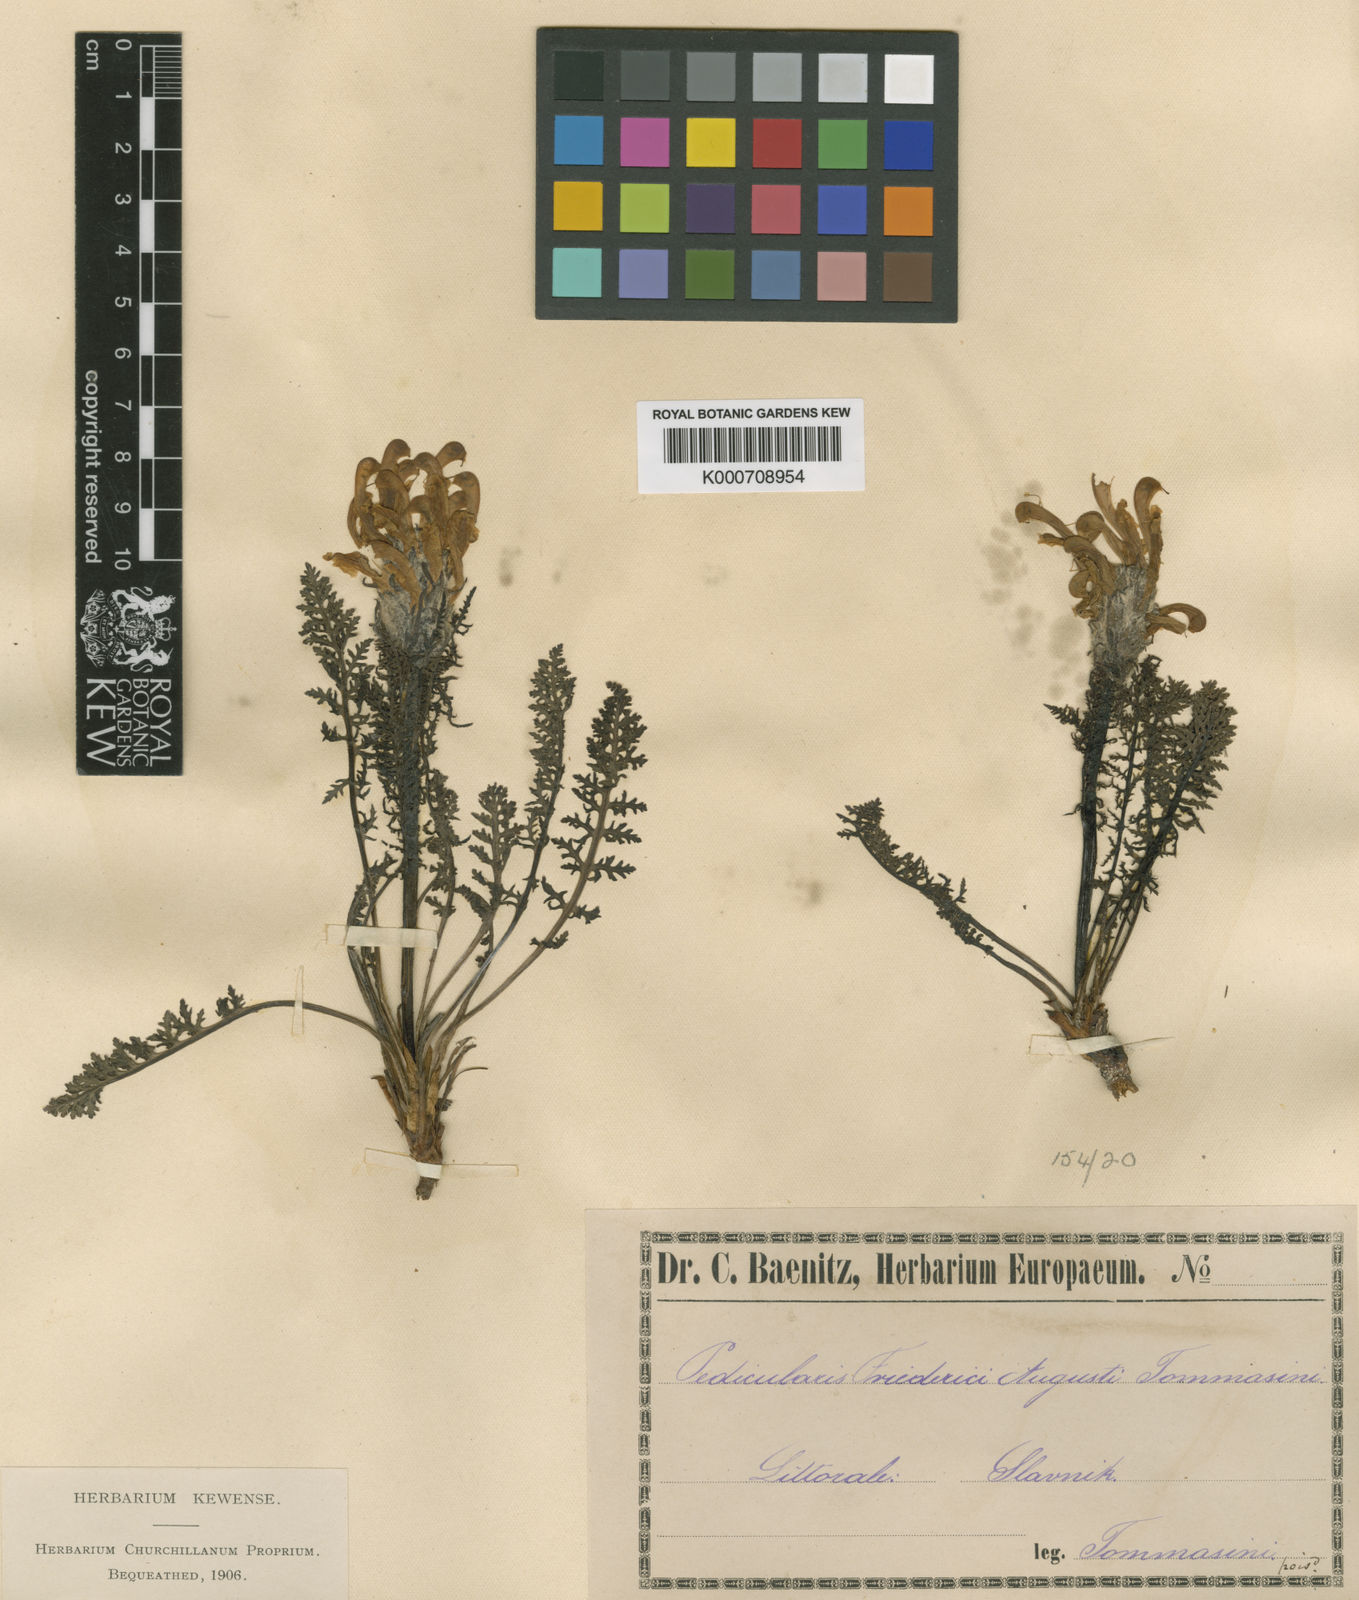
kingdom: Plantae
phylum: Tracheophyta
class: Magnoliopsida
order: Lamiales
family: Orobanchaceae
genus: Pedicularis
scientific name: Pedicularis friderici-augusti
